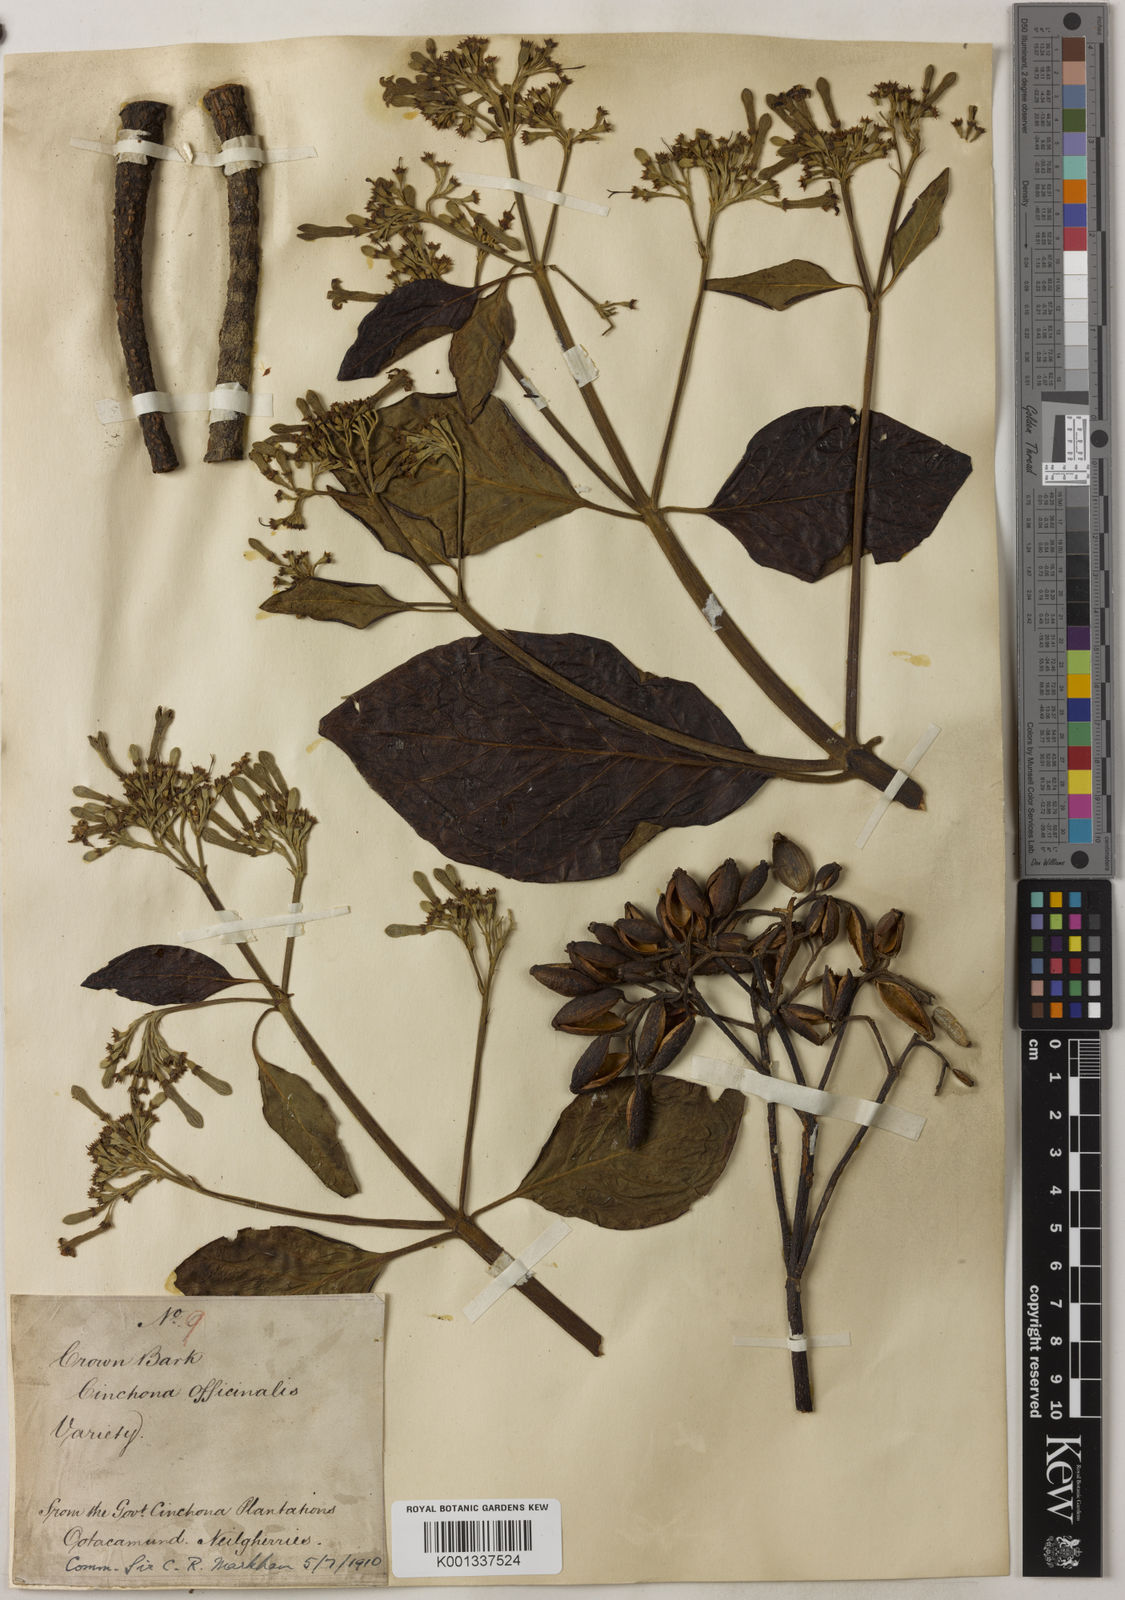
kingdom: Plantae
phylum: Tracheophyta
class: Magnoliopsida
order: Gentianales
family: Rubiaceae
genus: Cinchona
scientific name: Cinchona officinalis
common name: Lojabark
